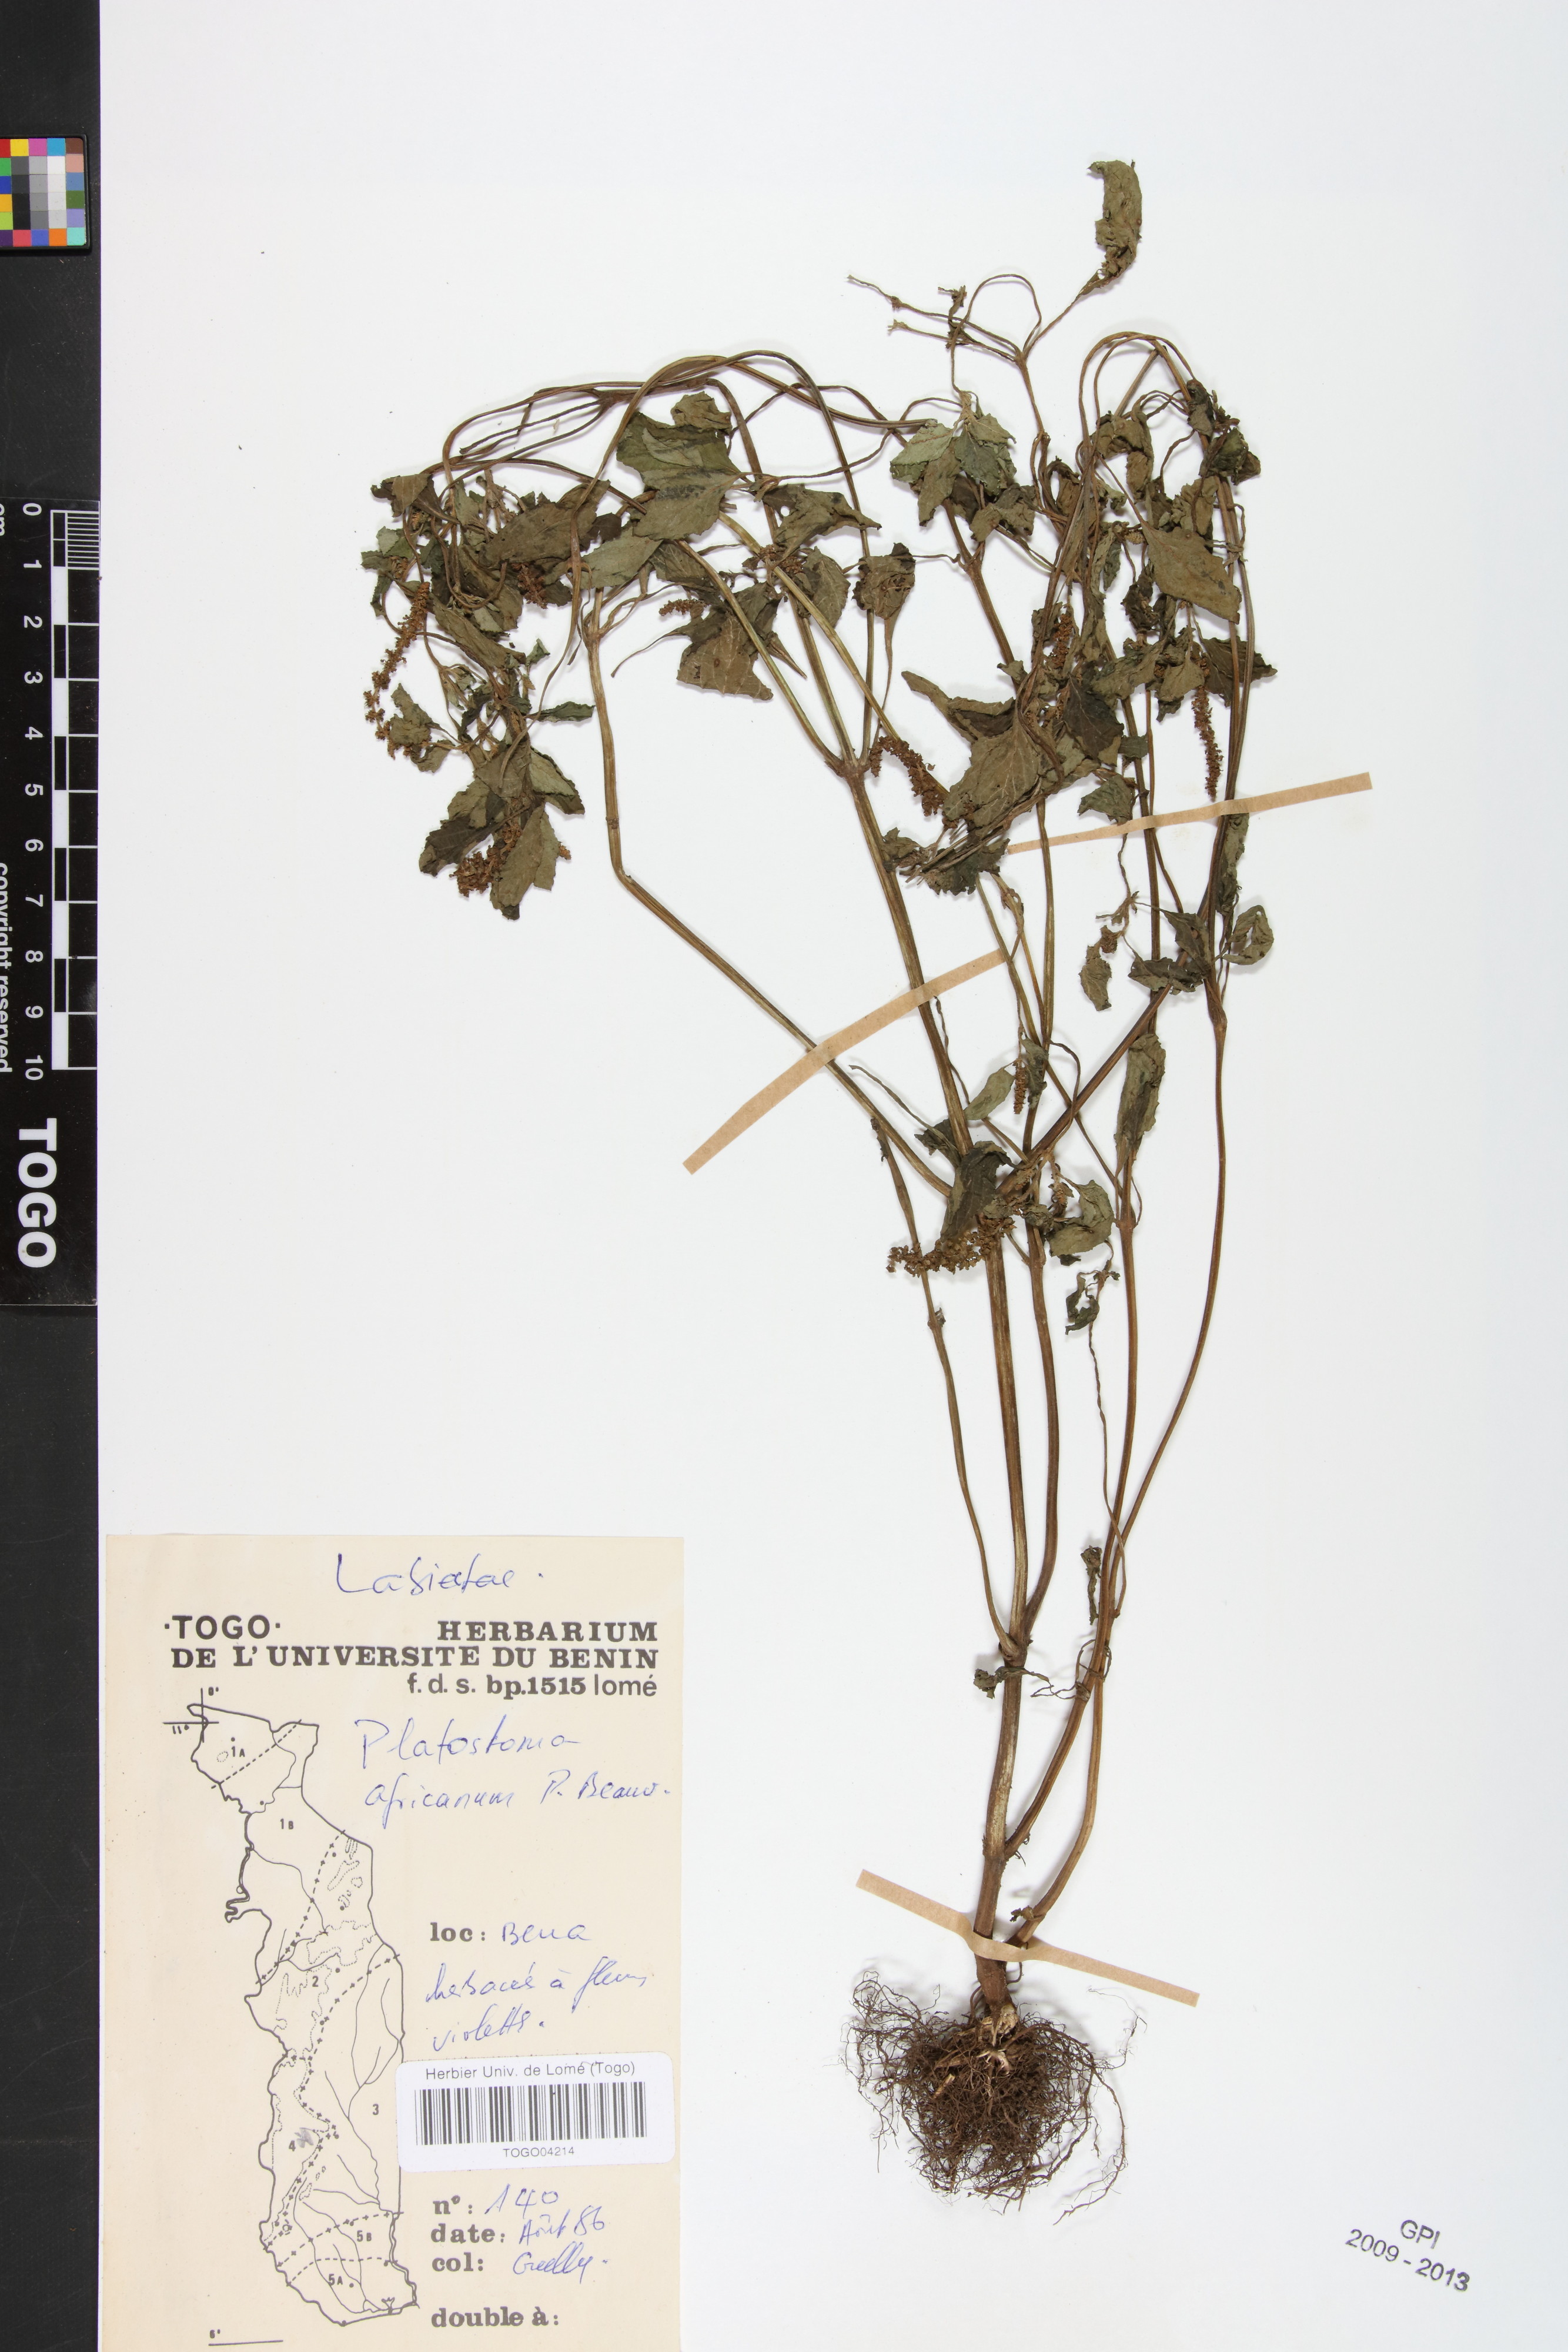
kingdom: Plantae
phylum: Tracheophyta
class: Magnoliopsida
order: Lamiales
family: Lamiaceae
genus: Platostoma
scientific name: Platostoma africanum
